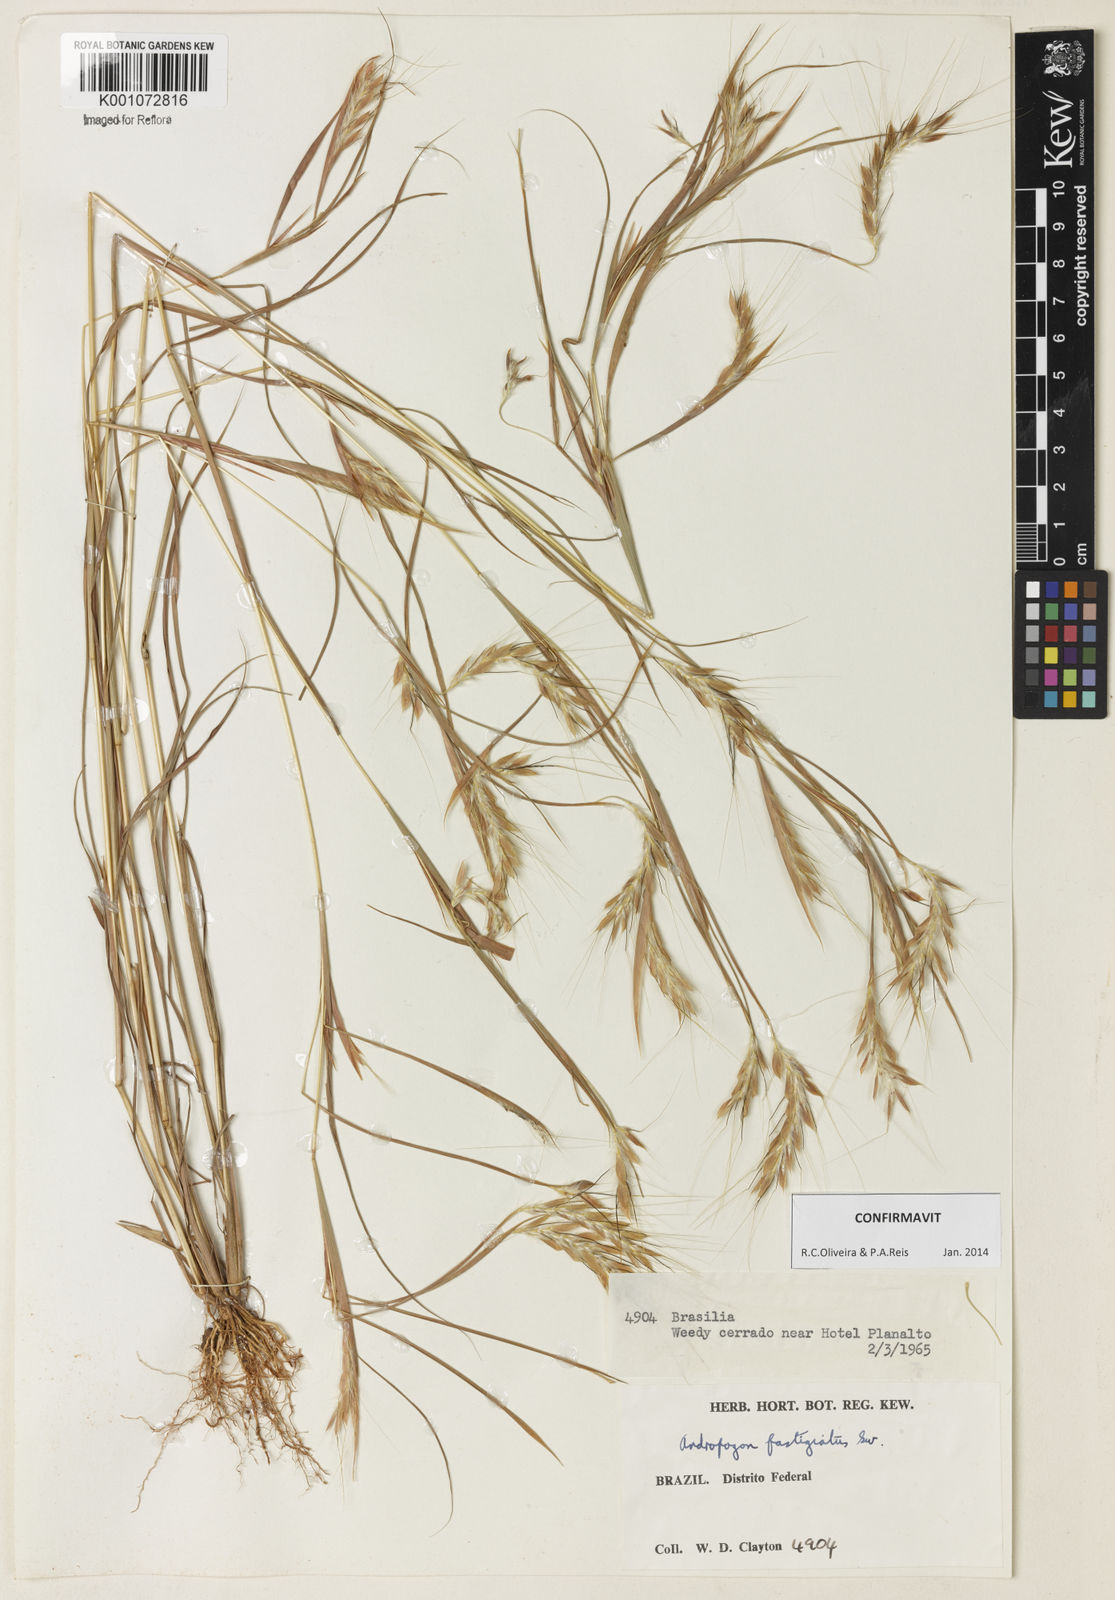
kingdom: Plantae
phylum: Tracheophyta
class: Liliopsida
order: Poales
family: Poaceae
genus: Diectomis
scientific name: Diectomis fastigiata
